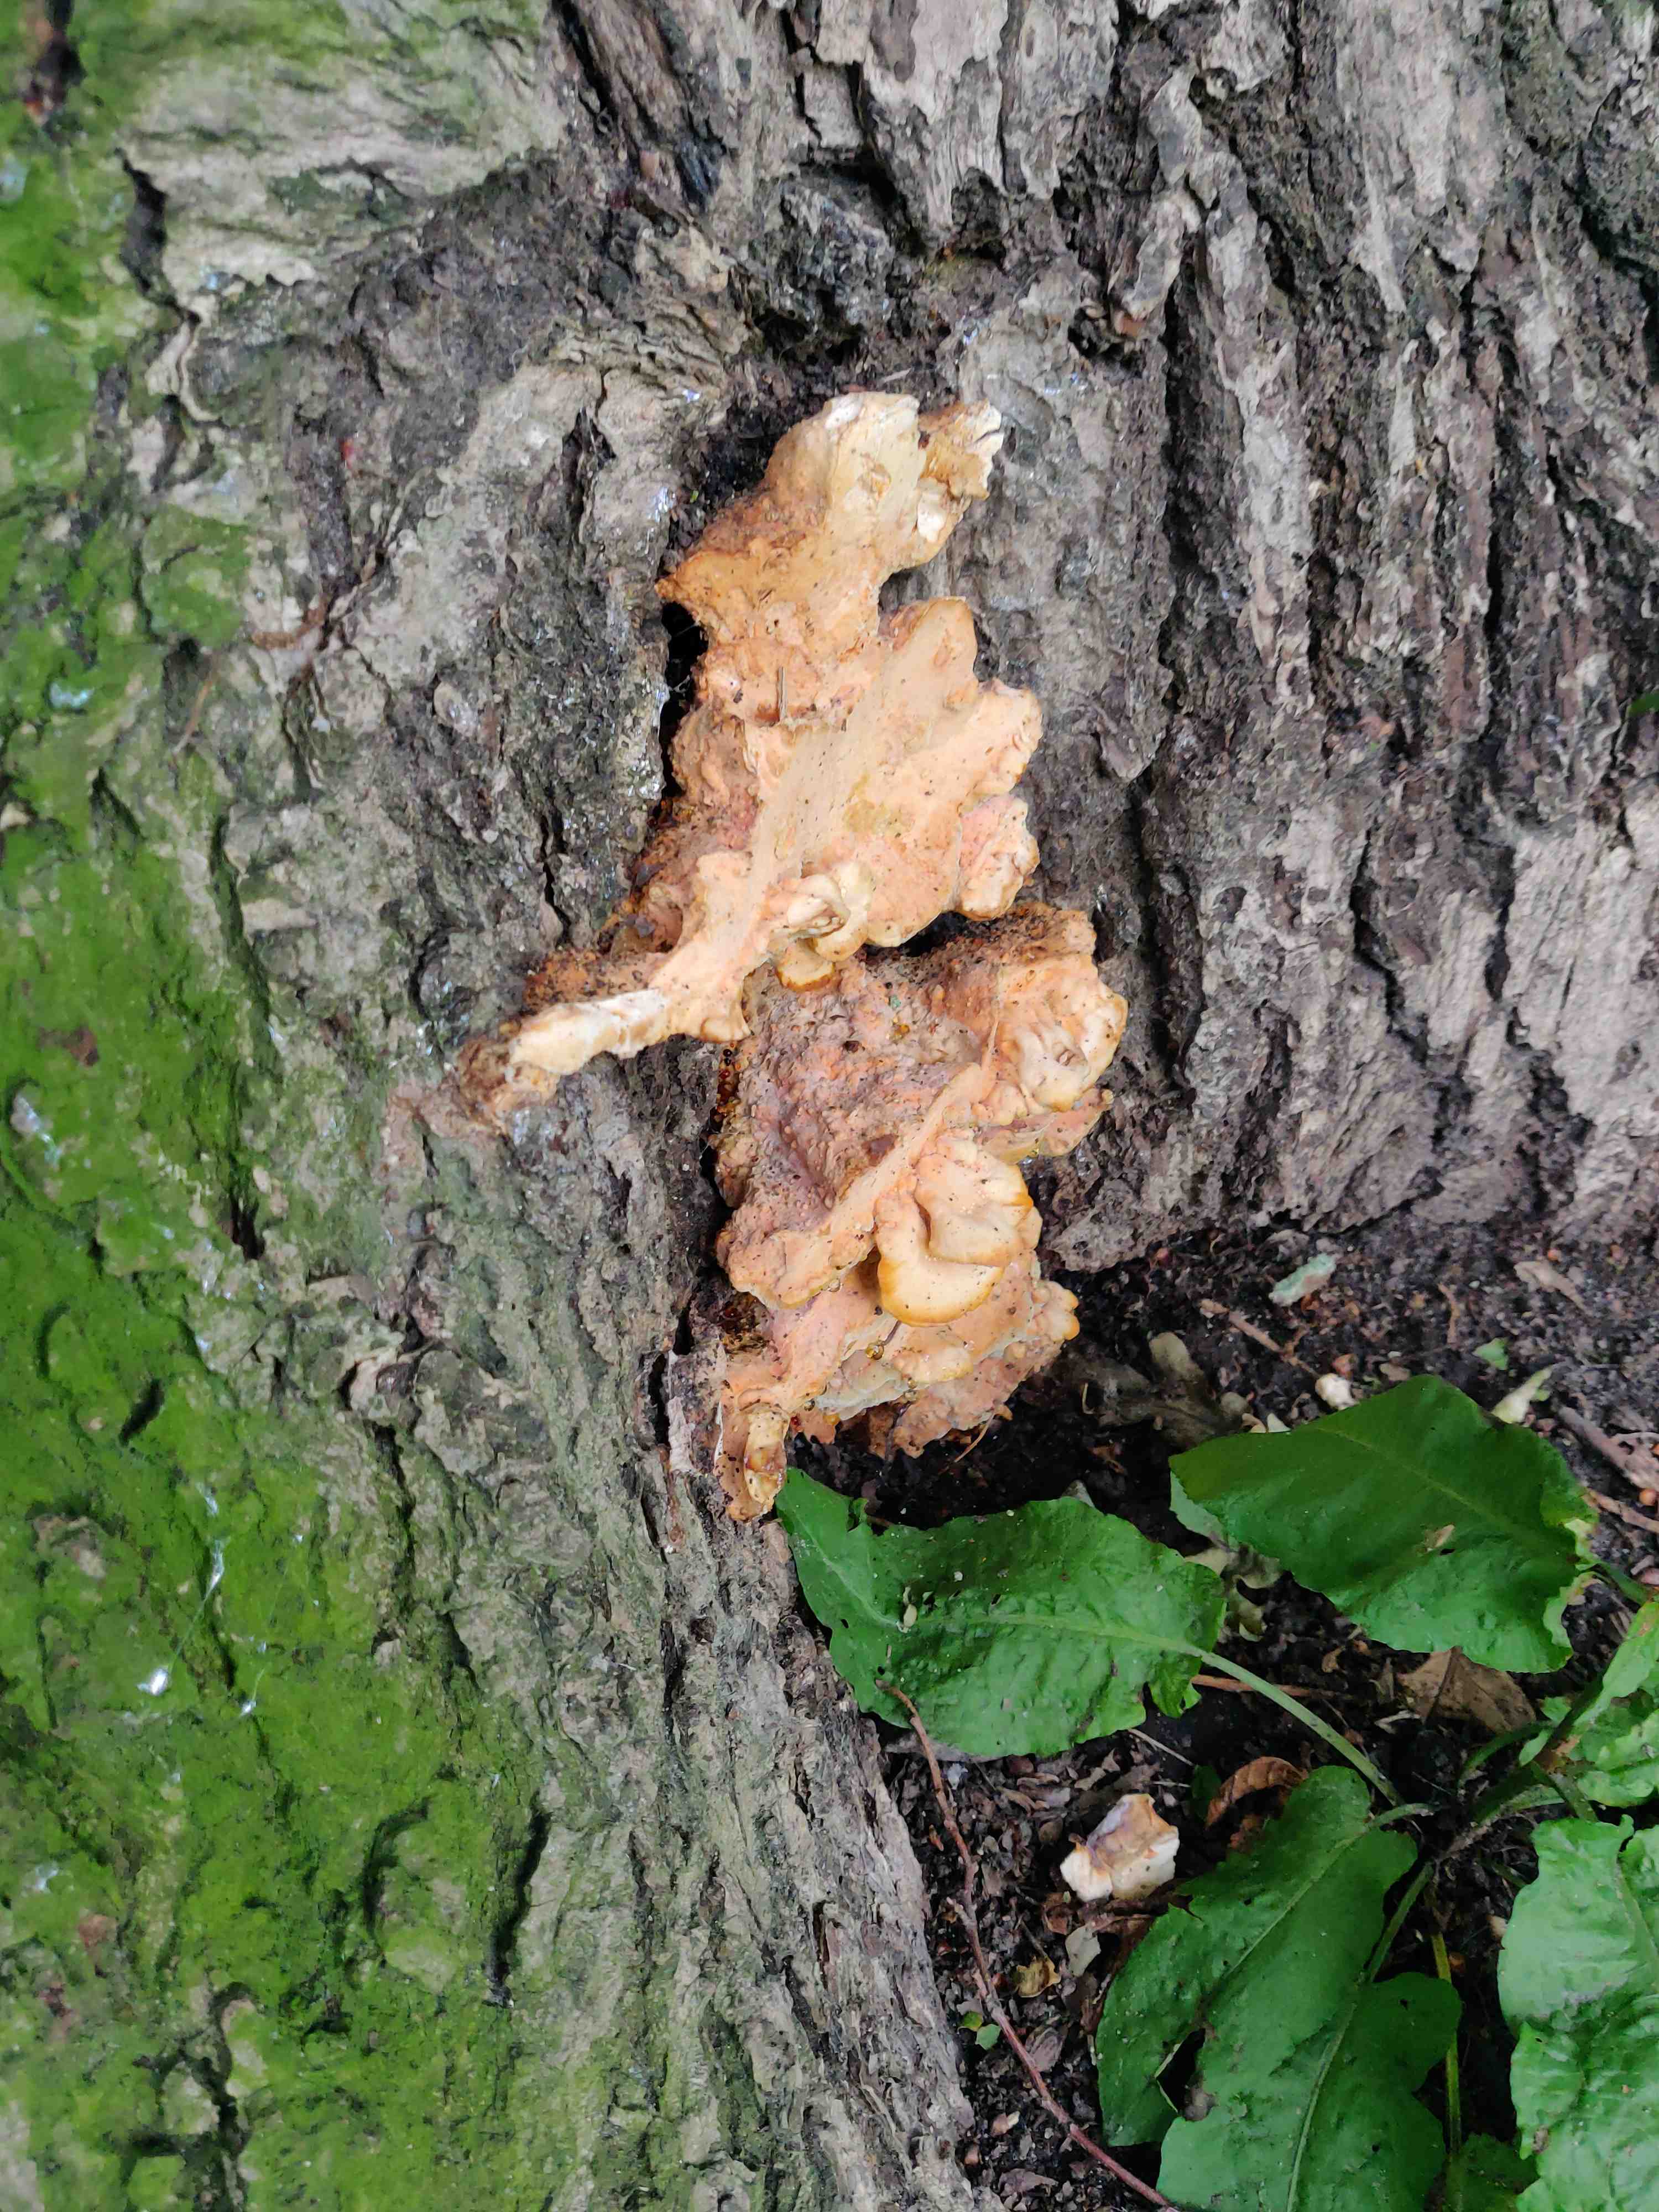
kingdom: Fungi
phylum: Basidiomycota
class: Agaricomycetes
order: Polyporales
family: Laetiporaceae
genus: Laetiporus
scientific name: Laetiporus sulphureus
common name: svovlporesvamp
